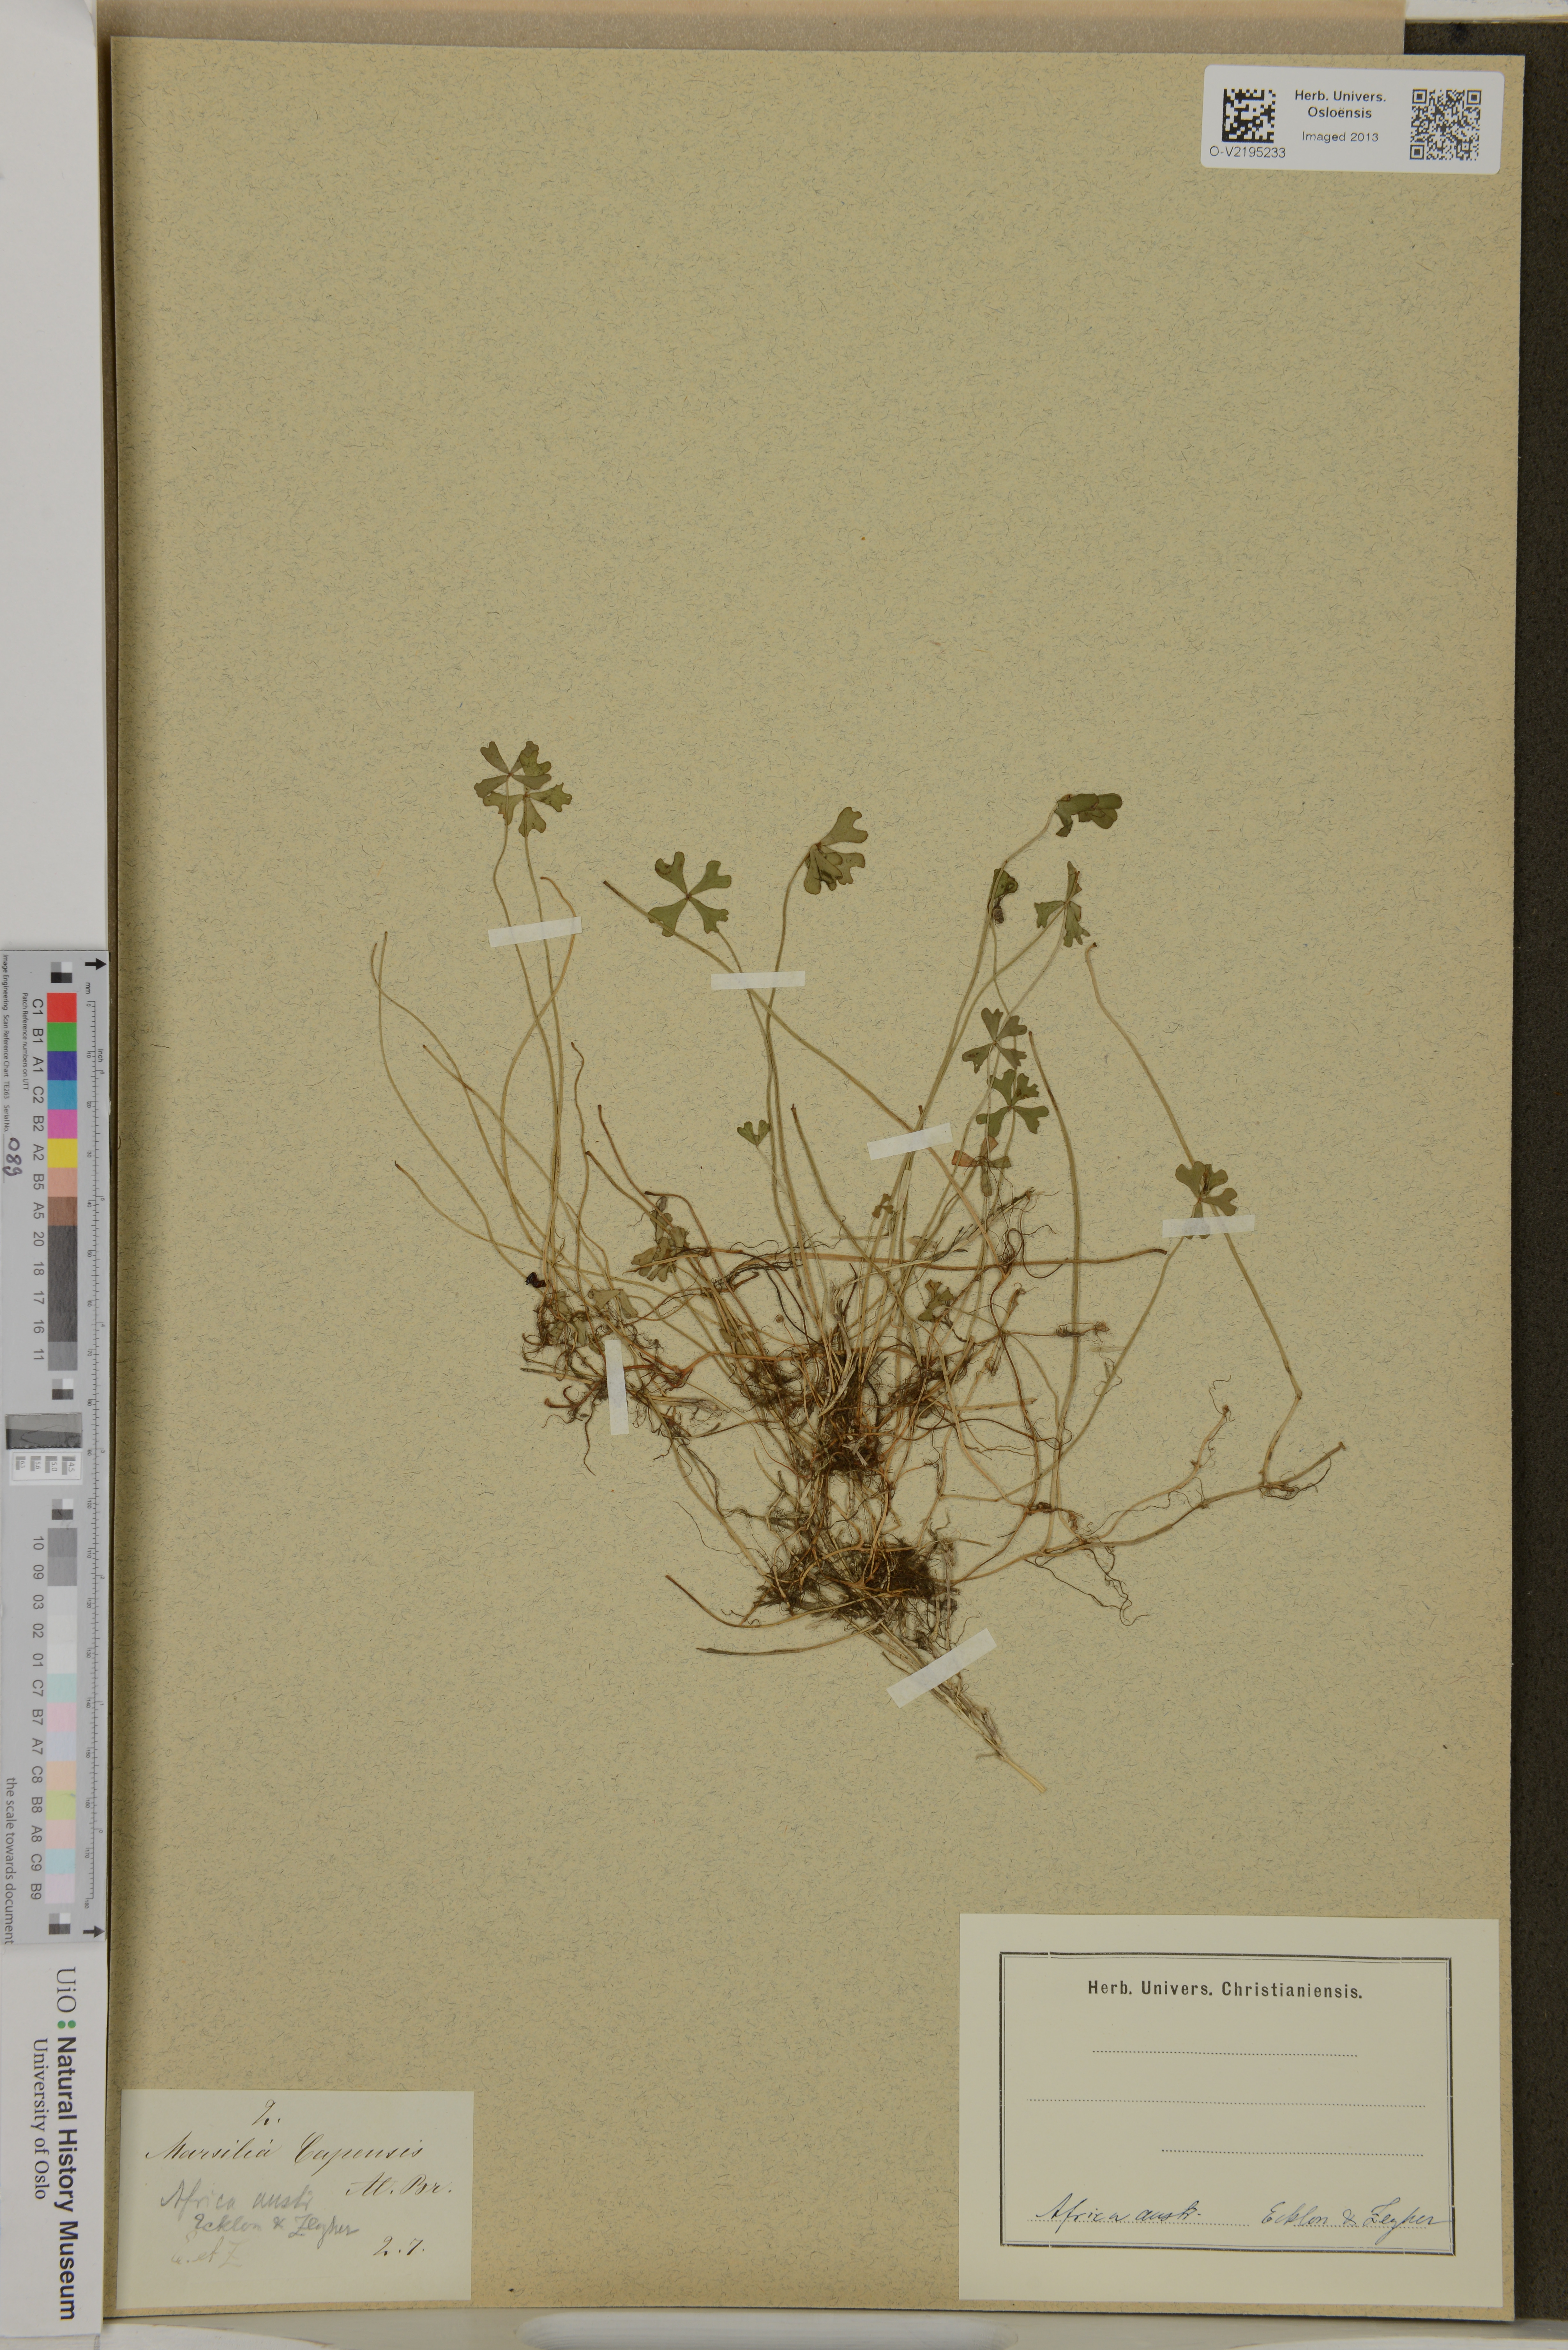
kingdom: Plantae
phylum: Tracheophyta
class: Polypodiopsida
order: Salviniales
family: Marsileaceae
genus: Marsilea
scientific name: Marsilea capensis
